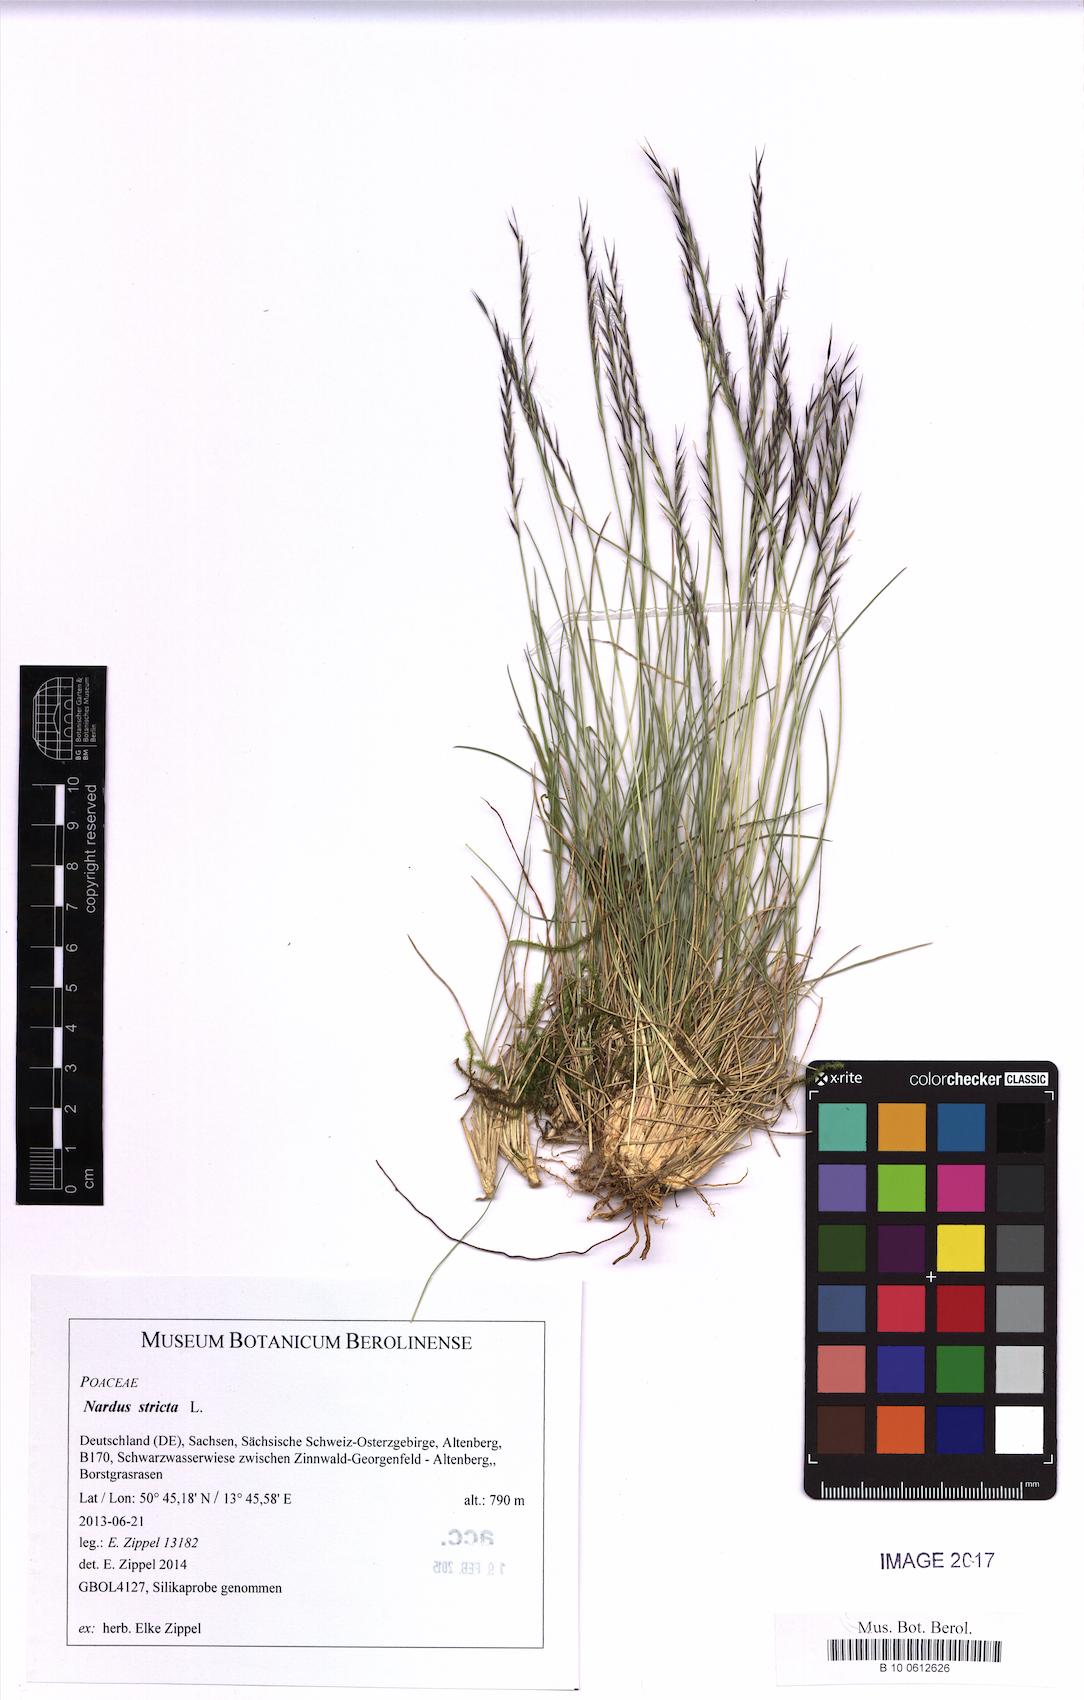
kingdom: Plantae
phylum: Tracheophyta
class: Liliopsida
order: Poales
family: Poaceae
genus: Nardus
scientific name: Nardus stricta
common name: Mat-grass
